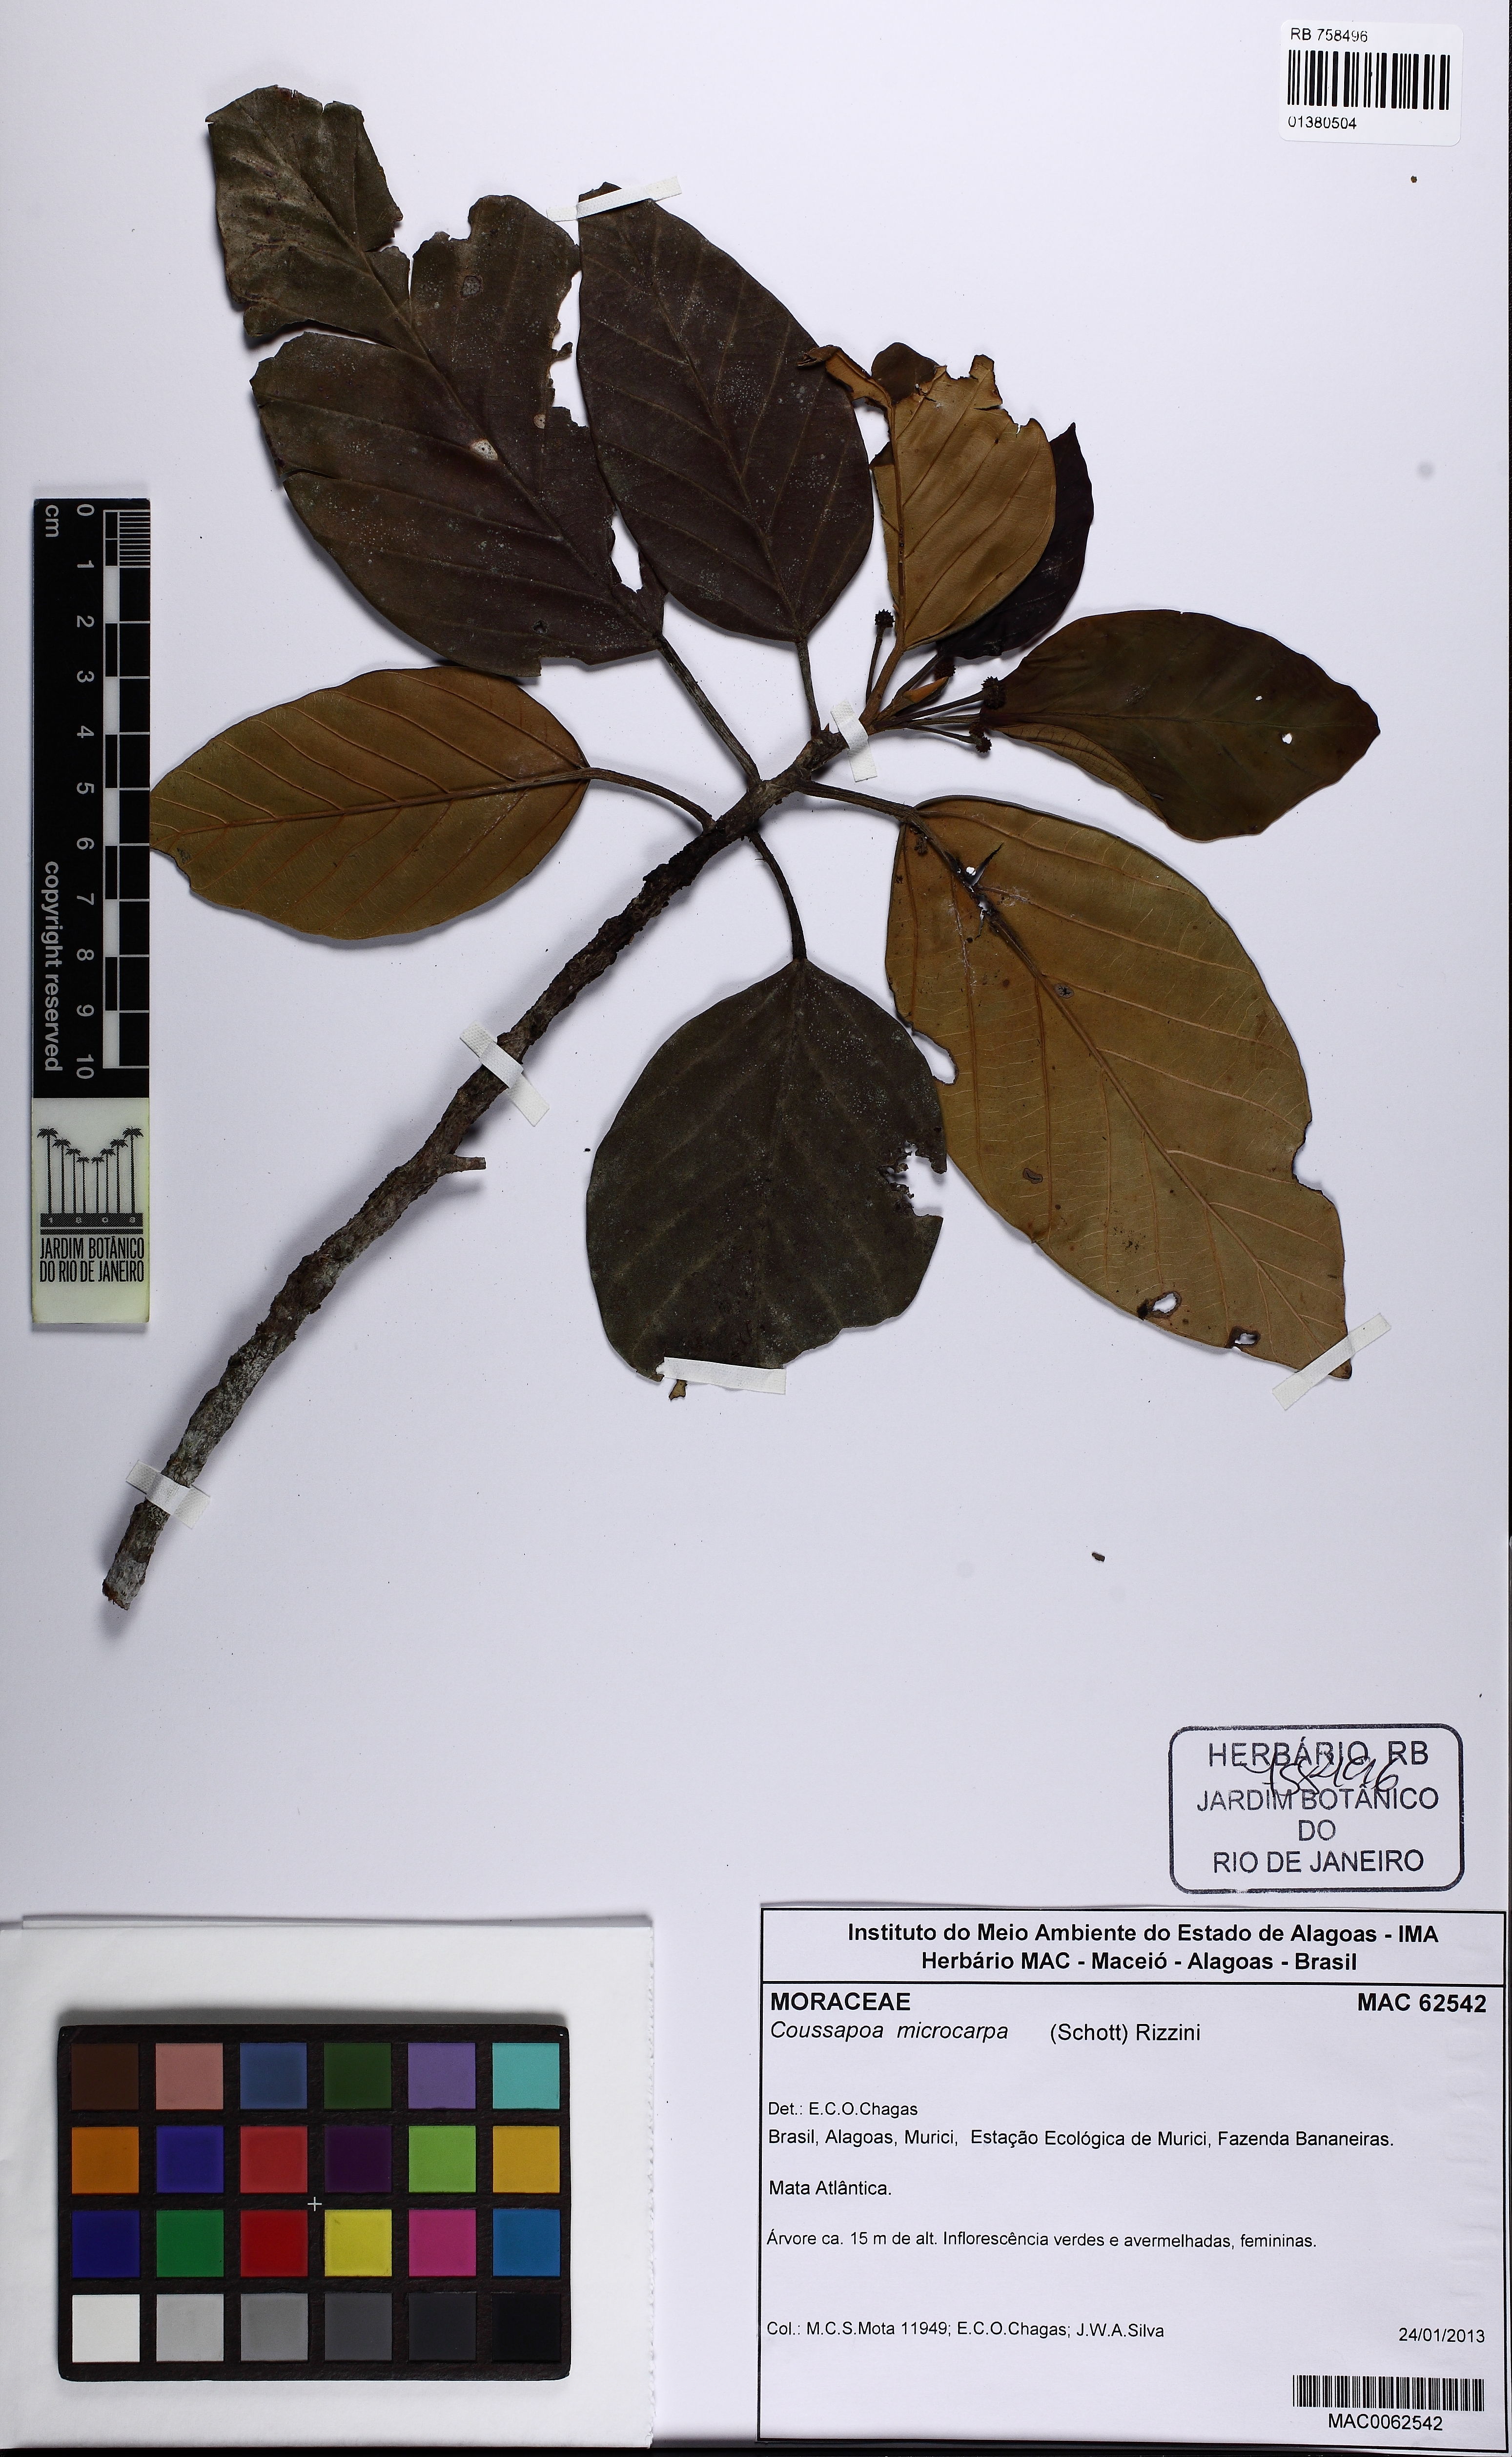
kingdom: Plantae
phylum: Tracheophyta
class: Magnoliopsida
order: Rosales
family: Urticaceae
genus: Coussapoa
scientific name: Coussapoa microcarpa
